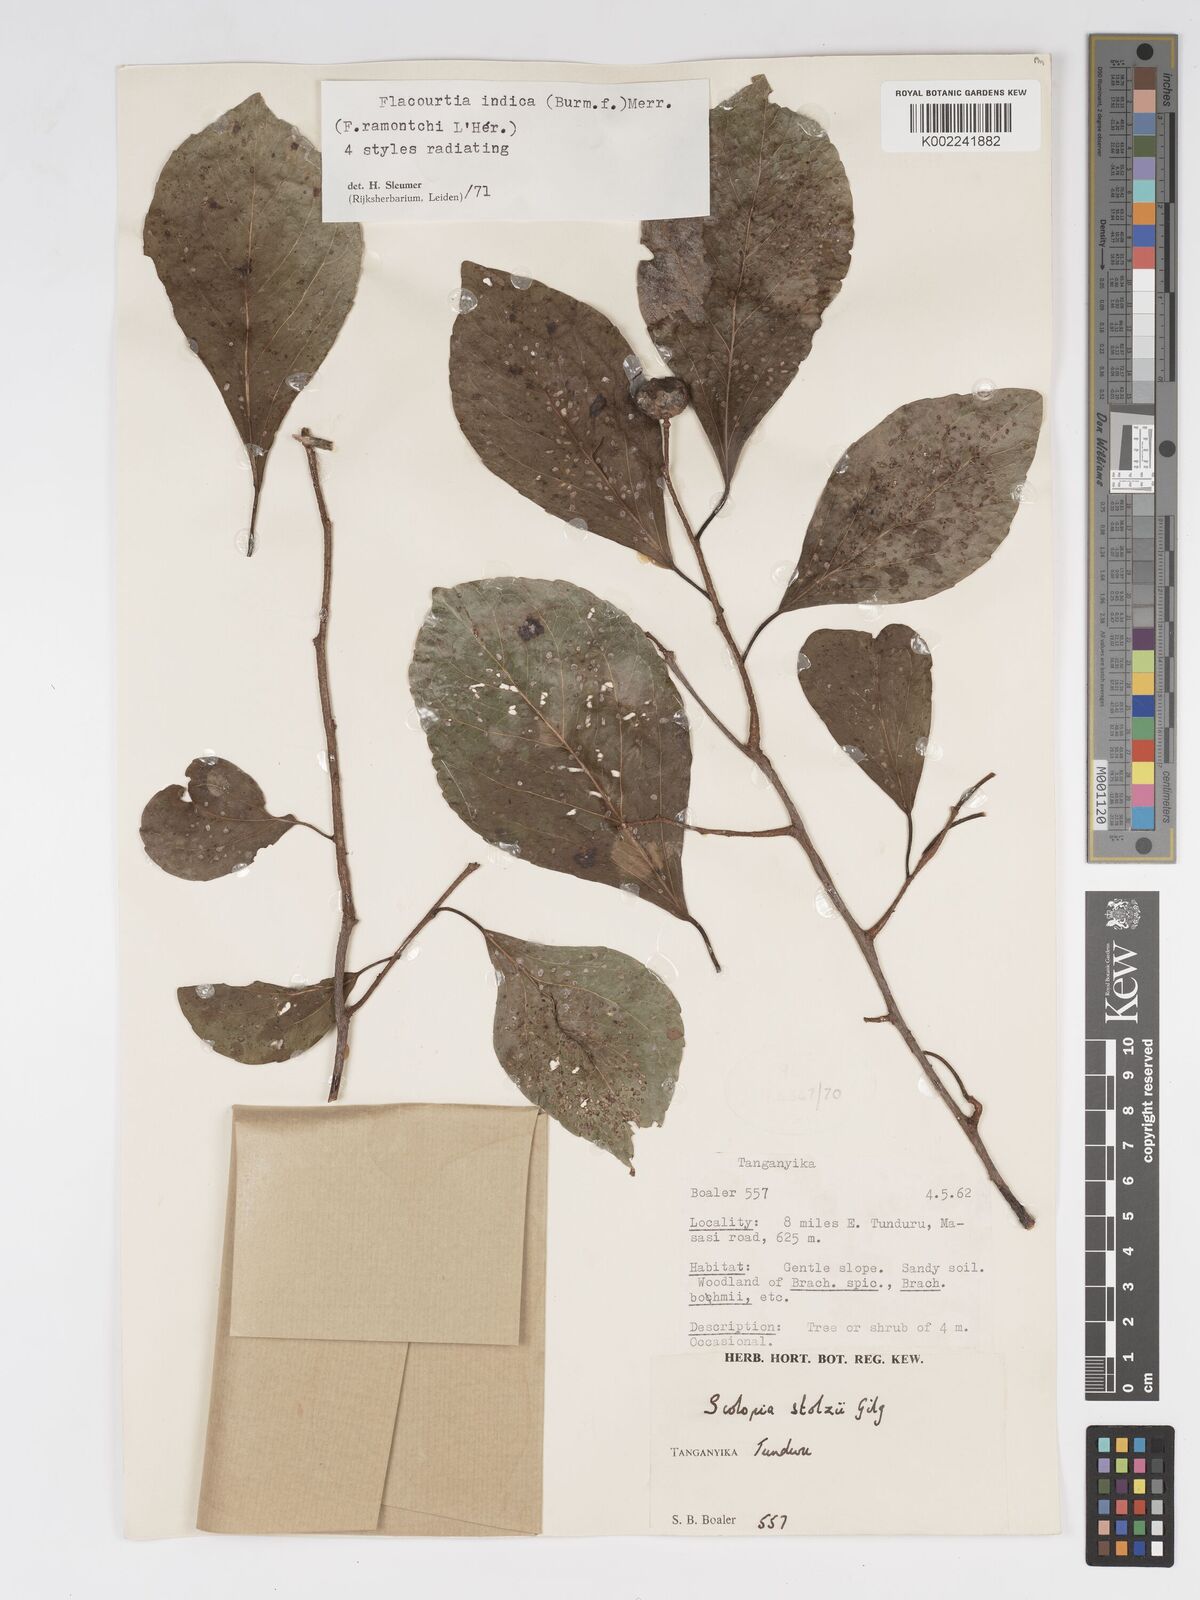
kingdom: Plantae
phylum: Tracheophyta
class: Magnoliopsida
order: Malpighiales
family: Salicaceae
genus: Flacourtia
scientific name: Flacourtia indica
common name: Governor's plum
